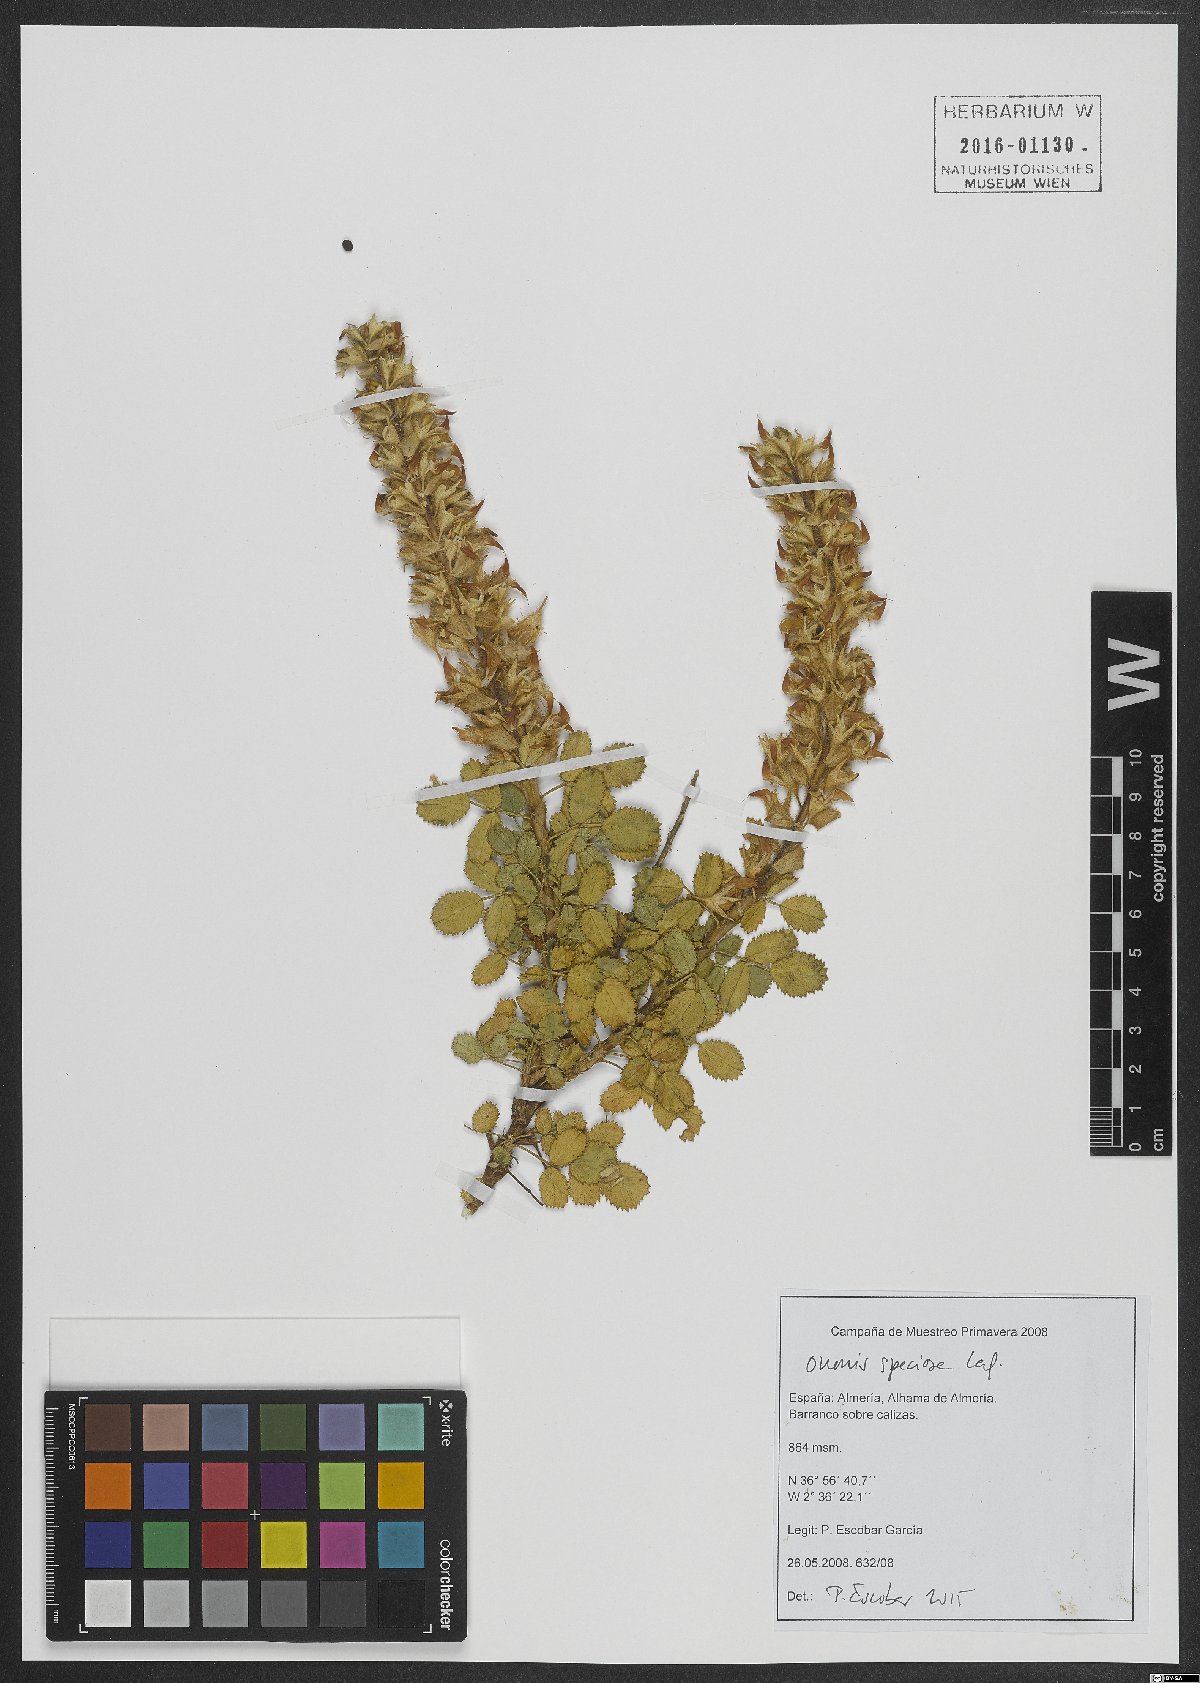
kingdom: Plantae
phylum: Tracheophyta
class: Magnoliopsida
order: Fabales
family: Fabaceae
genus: Ononis
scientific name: Ononis speciosa
